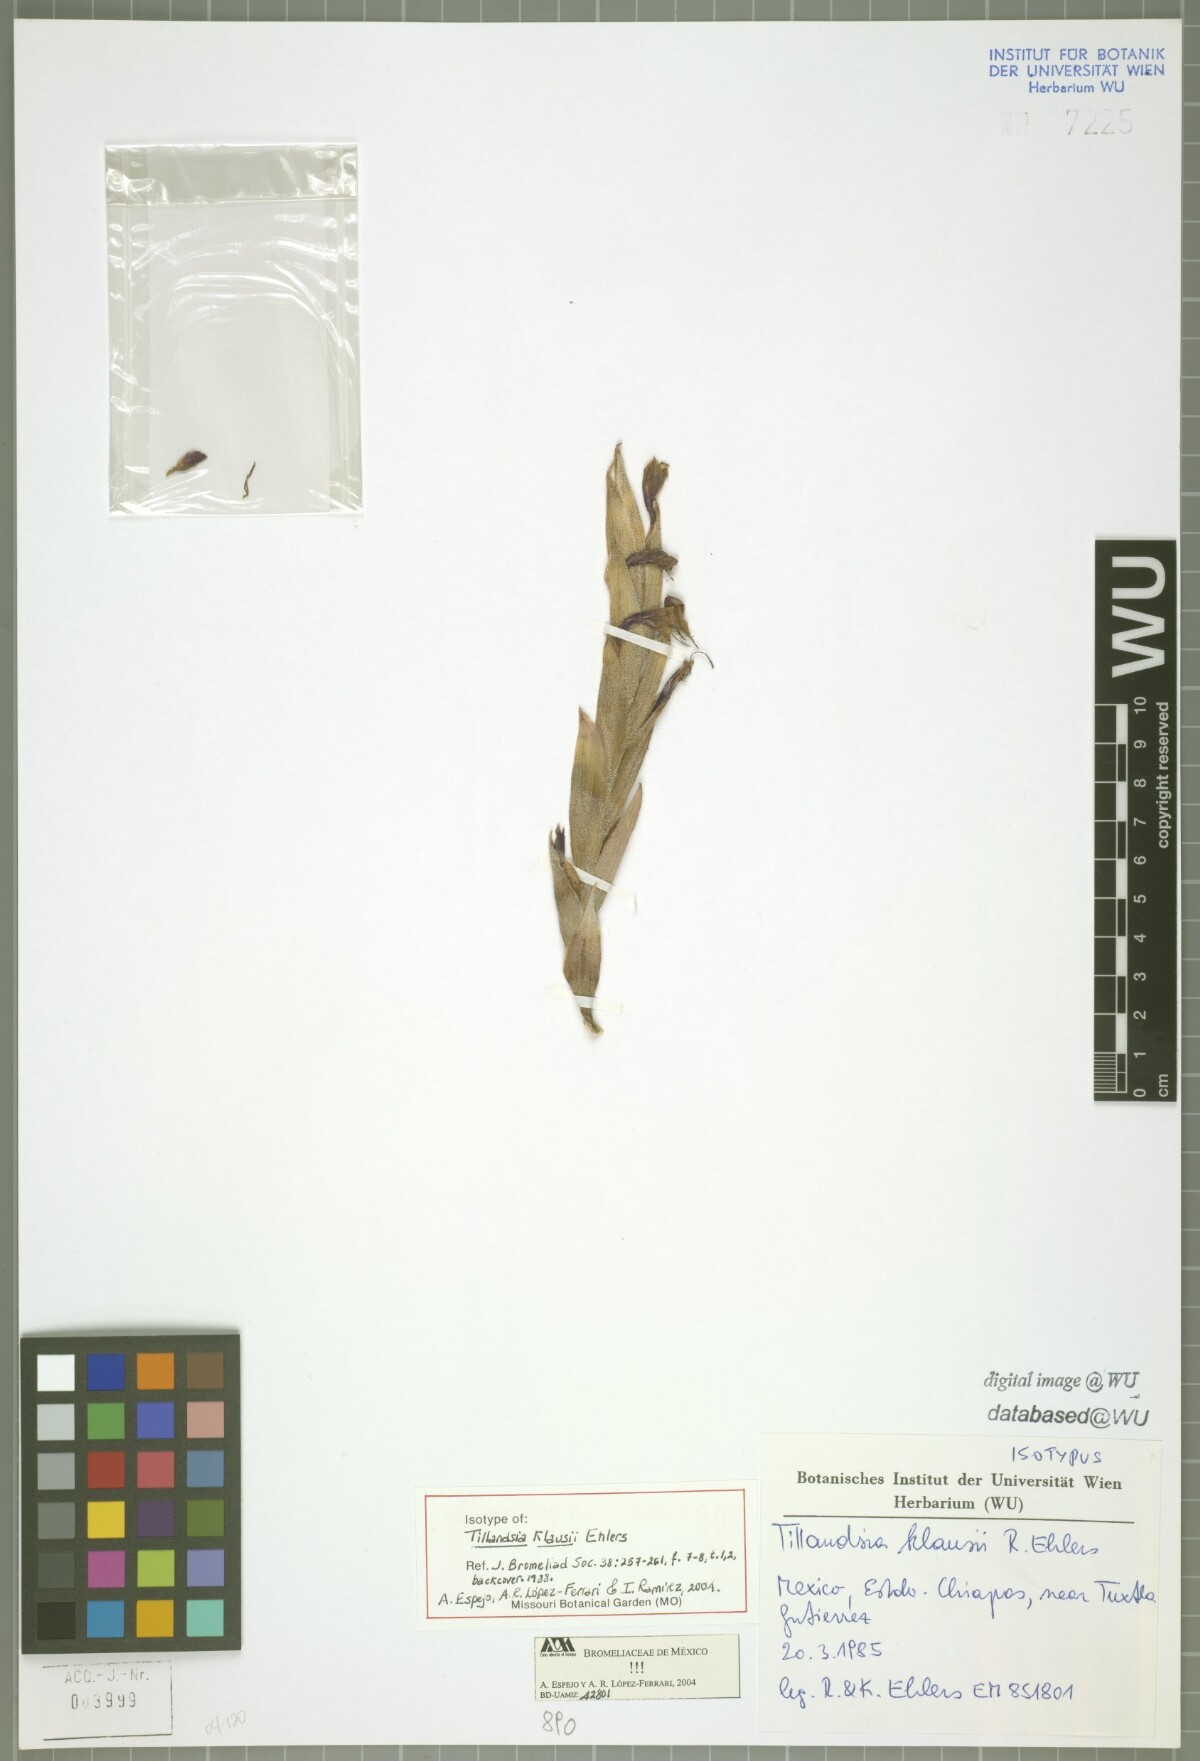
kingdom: Plantae
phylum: Tracheophyta
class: Liliopsida
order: Poales
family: Bromeliaceae
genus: Tillandsia
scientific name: Tillandsia klausii
